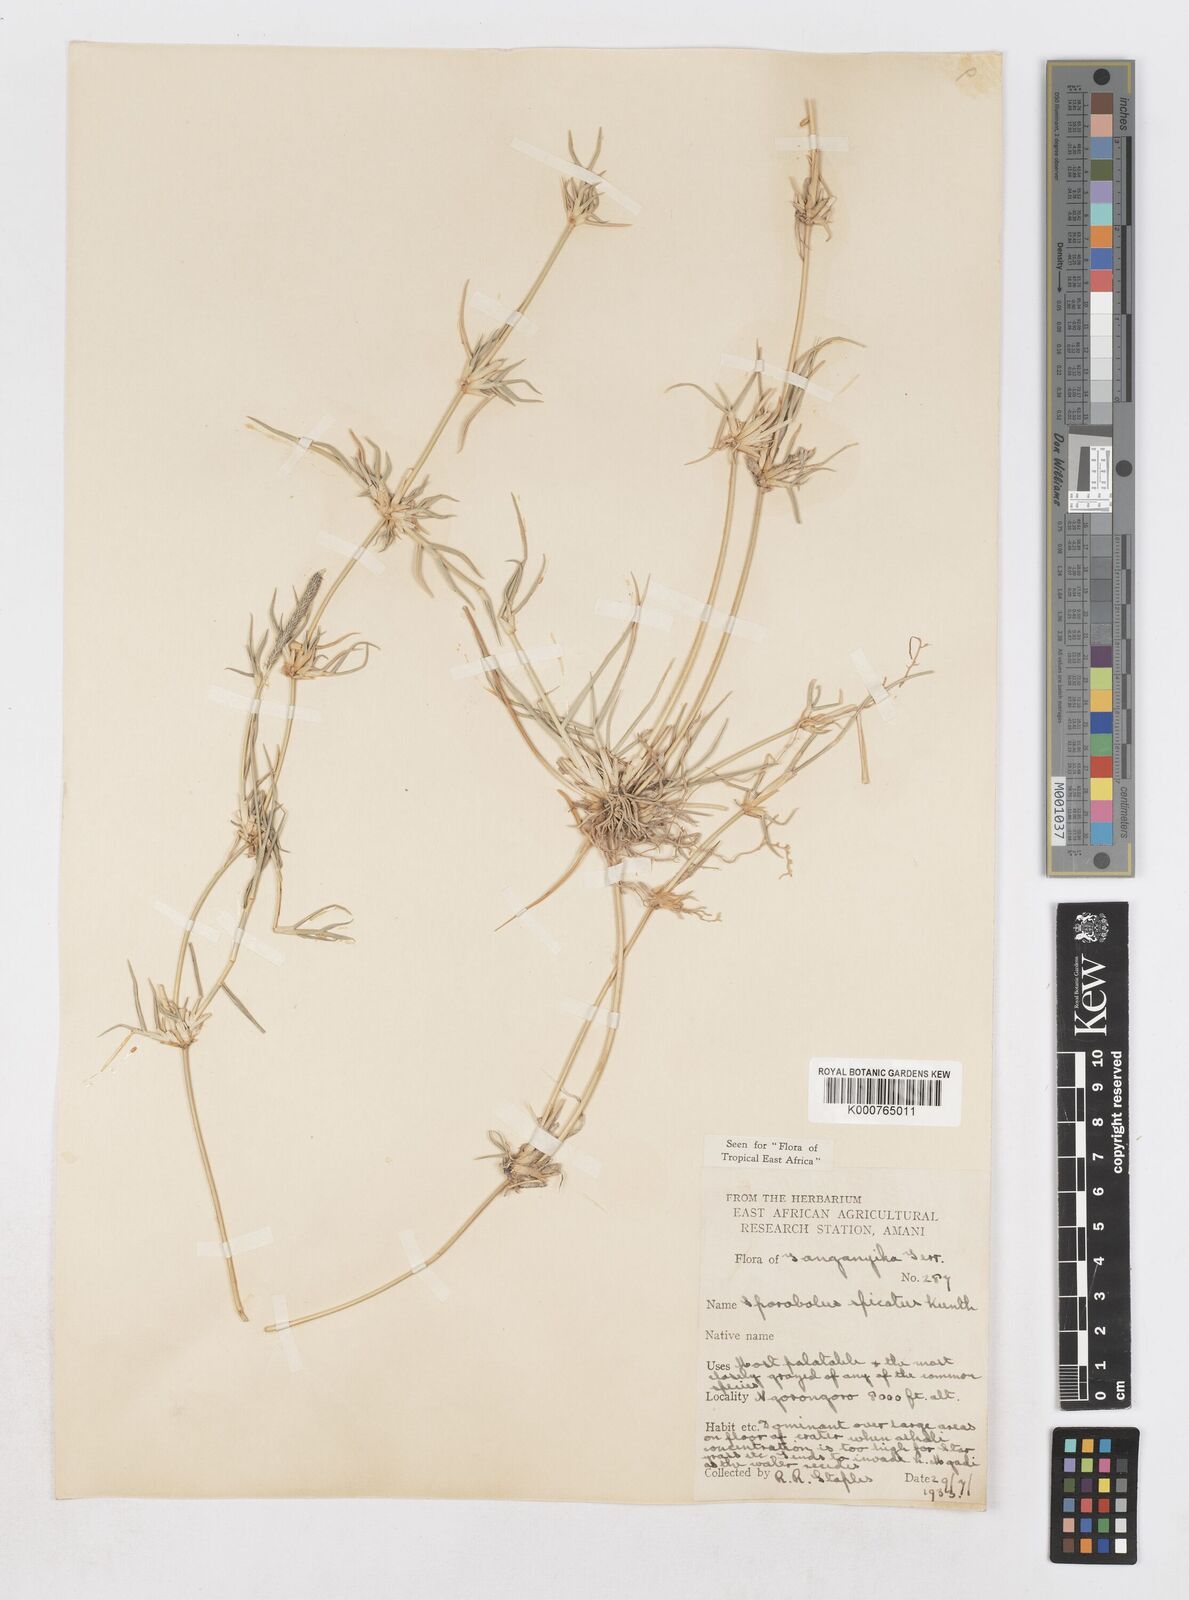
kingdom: Plantae
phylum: Tracheophyta
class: Liliopsida
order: Poales
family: Poaceae
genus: Sporobolus
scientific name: Sporobolus spicatus
